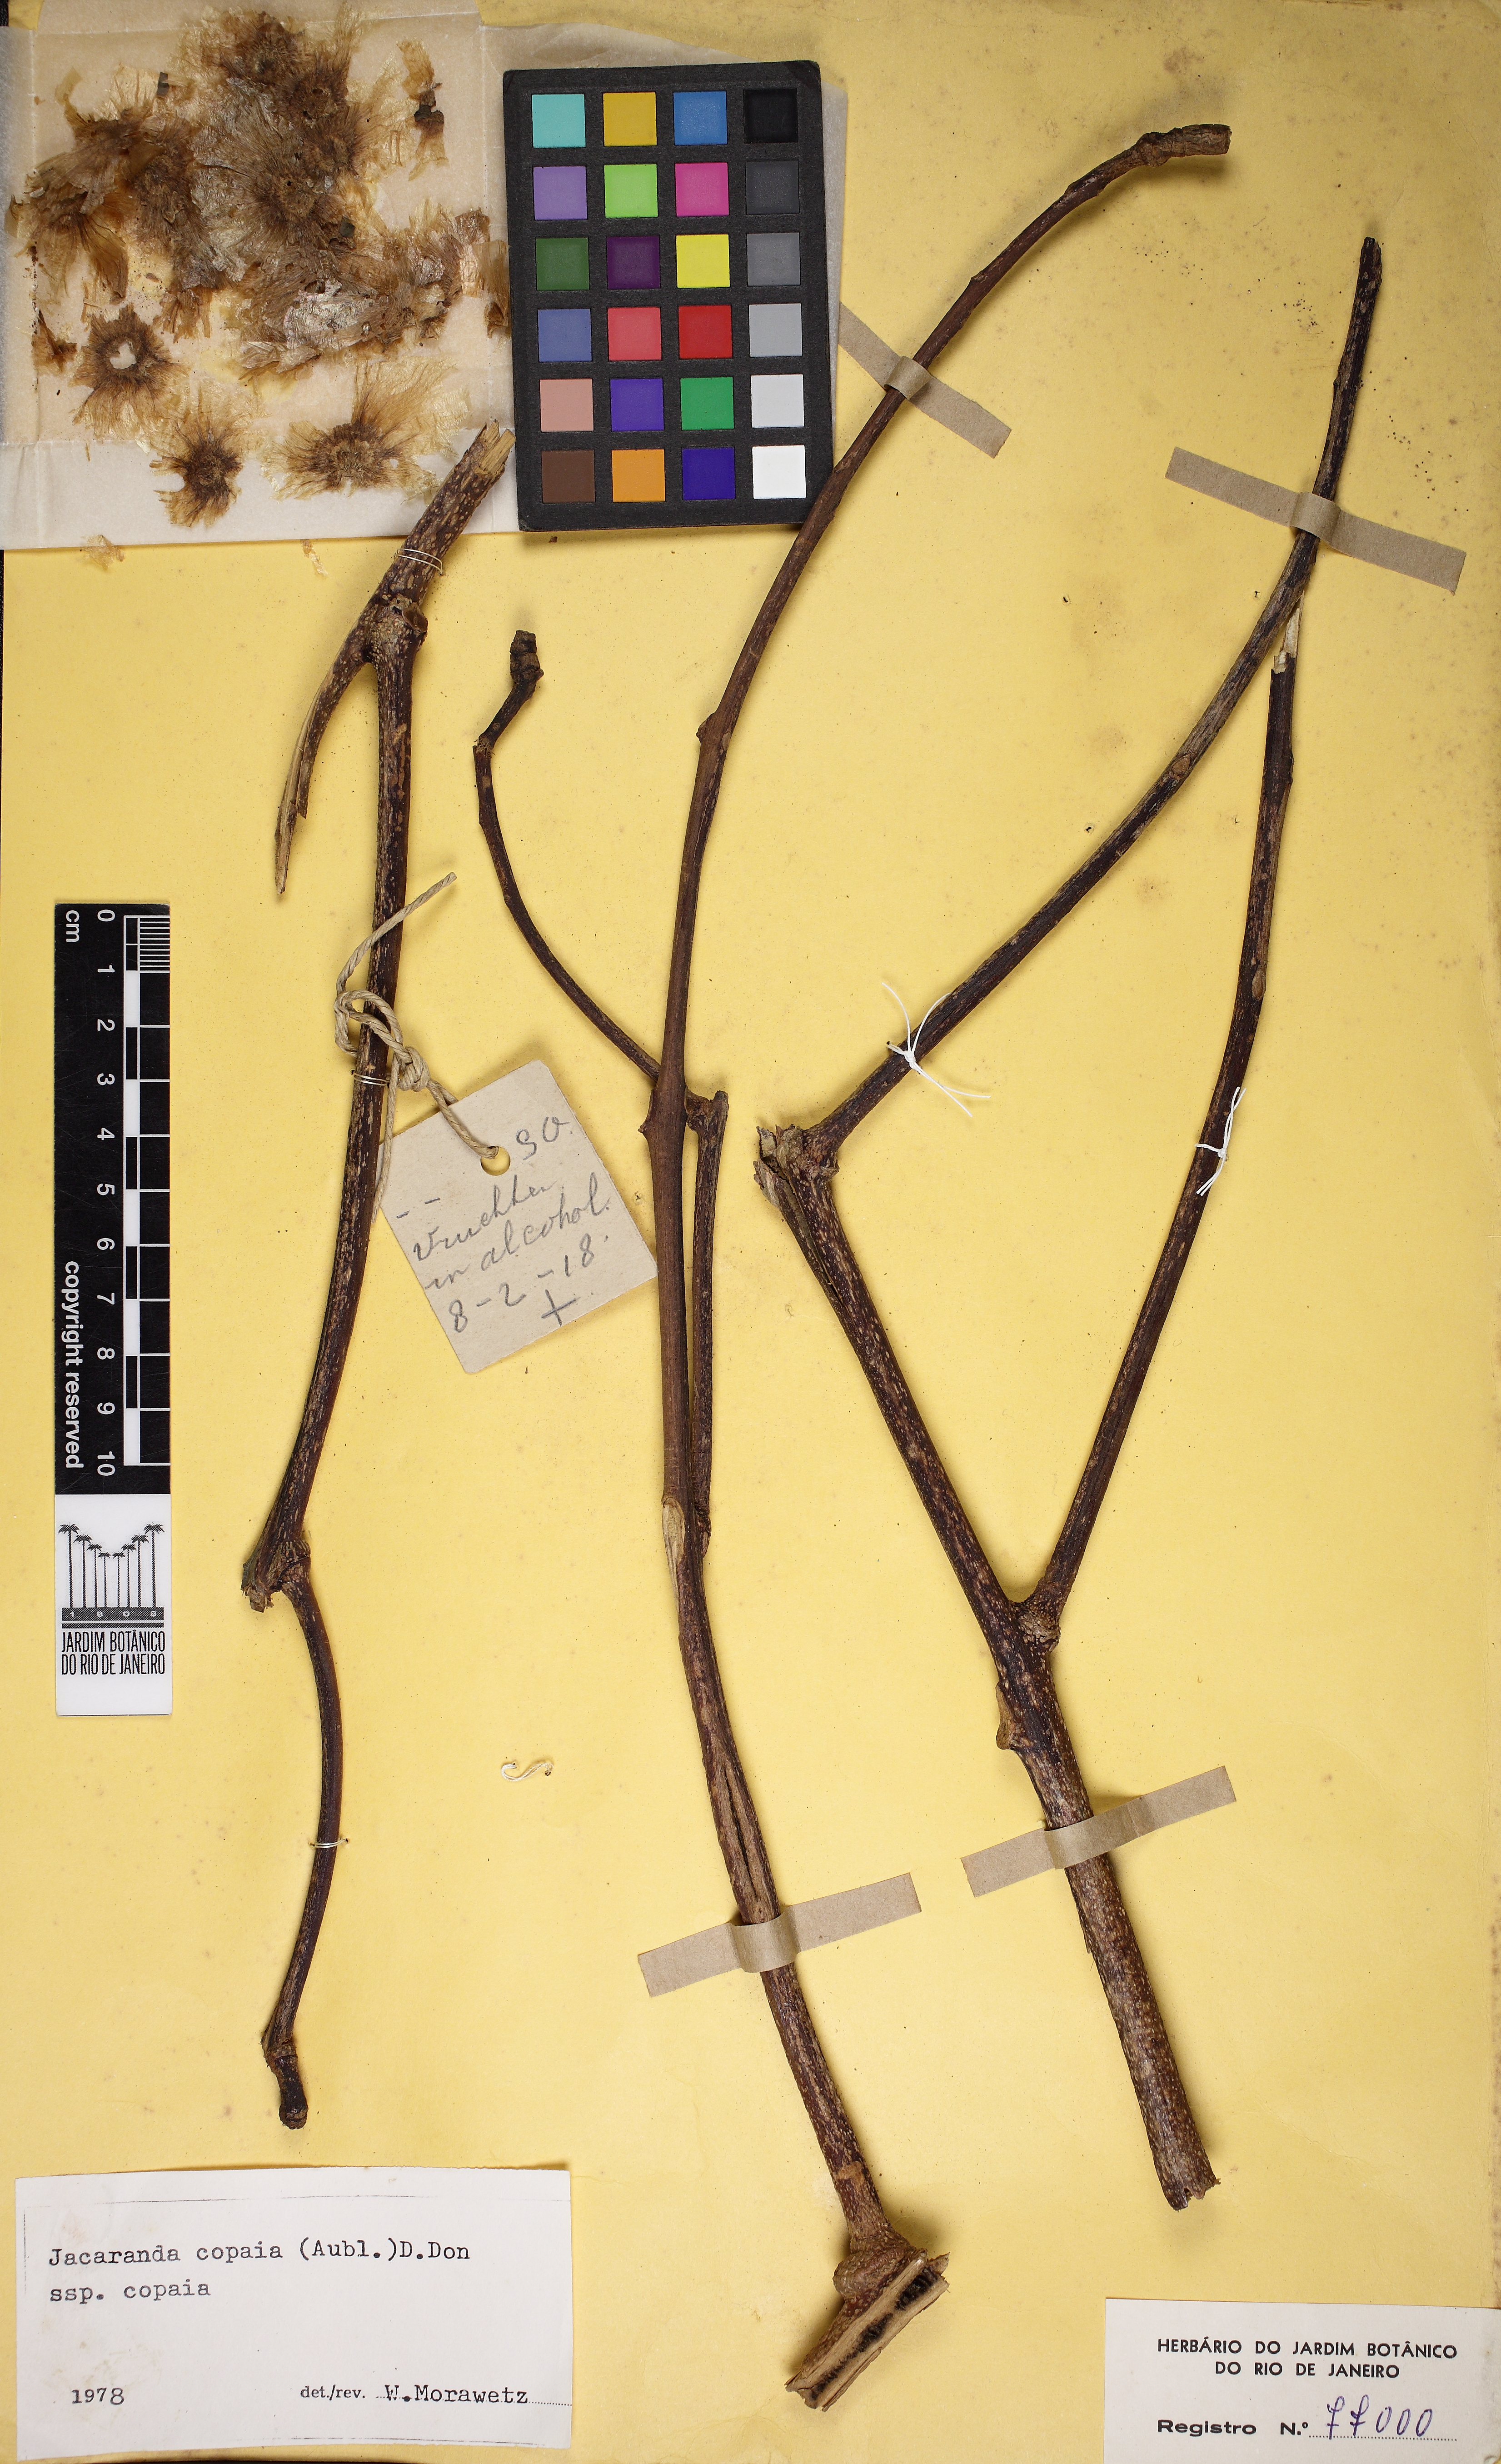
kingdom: Plantae
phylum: Tracheophyta
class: Magnoliopsida
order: Lamiales
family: Bignoniaceae
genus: Jacaranda
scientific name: Jacaranda copaia
